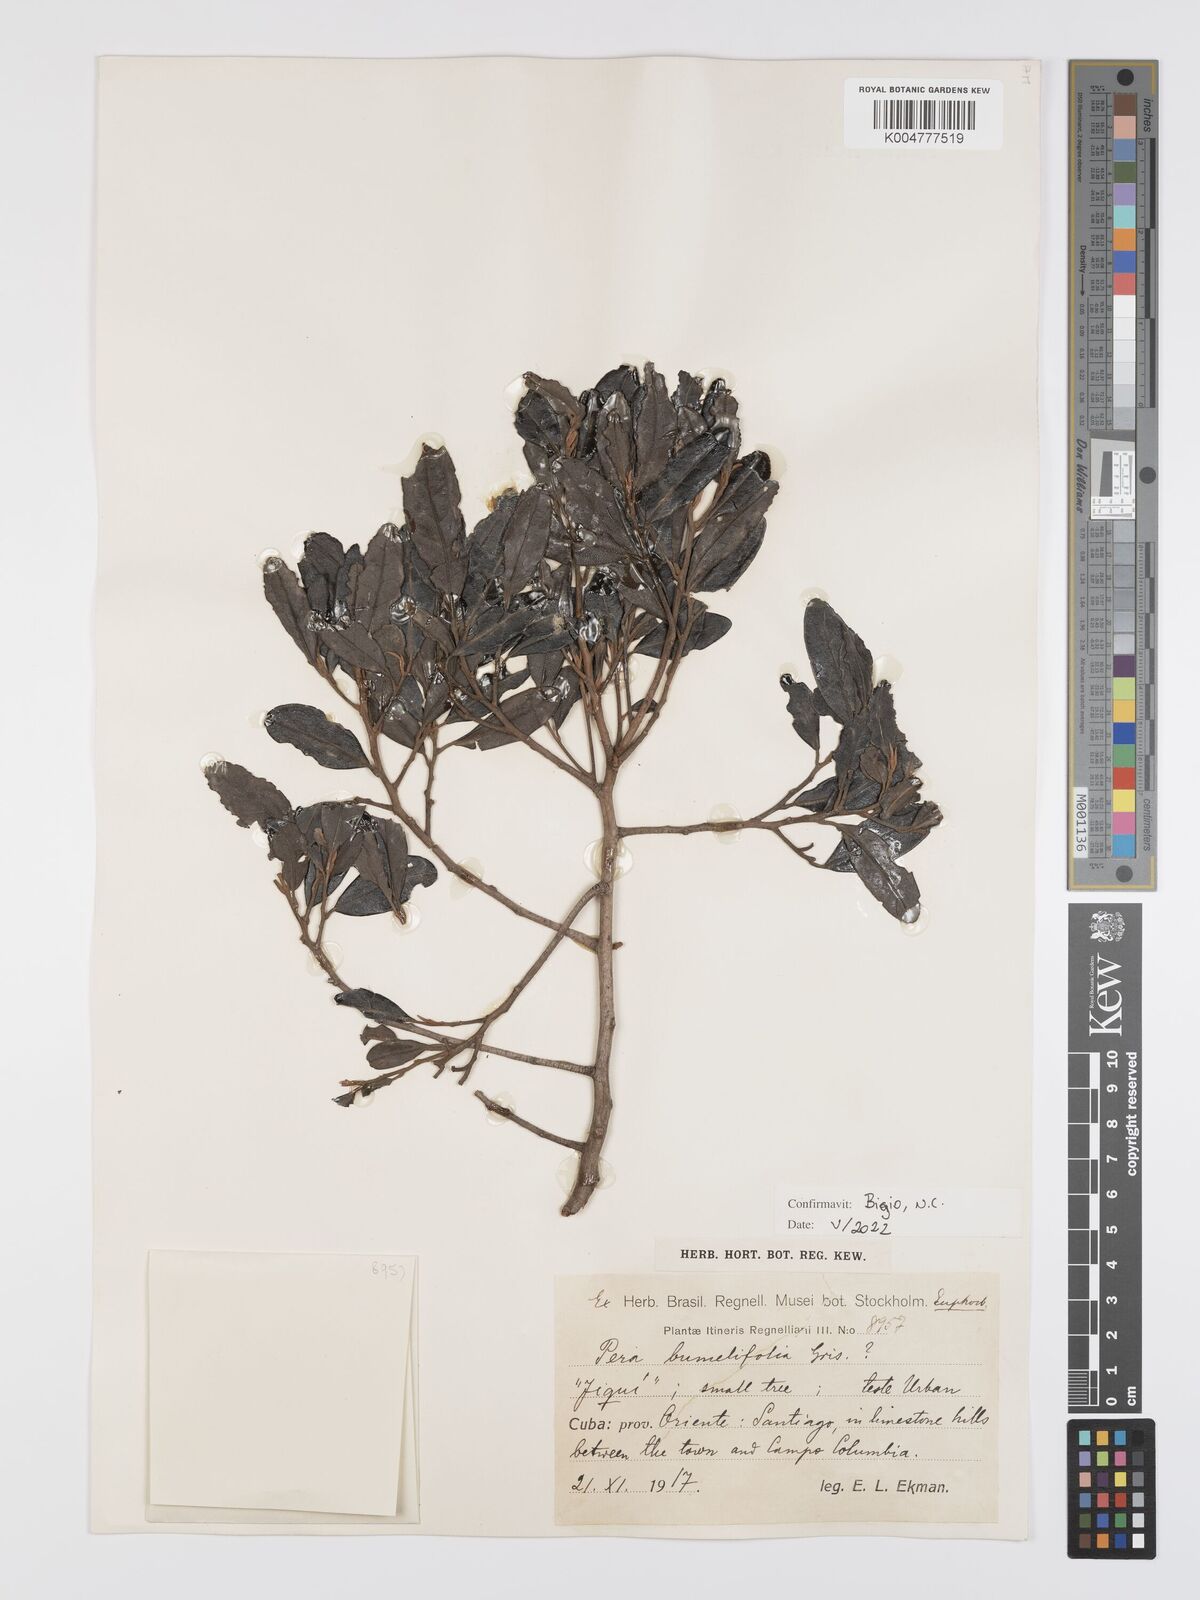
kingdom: Plantae
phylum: Tracheophyta
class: Magnoliopsida
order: Malpighiales
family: Peraceae
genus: Pera
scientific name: Pera
